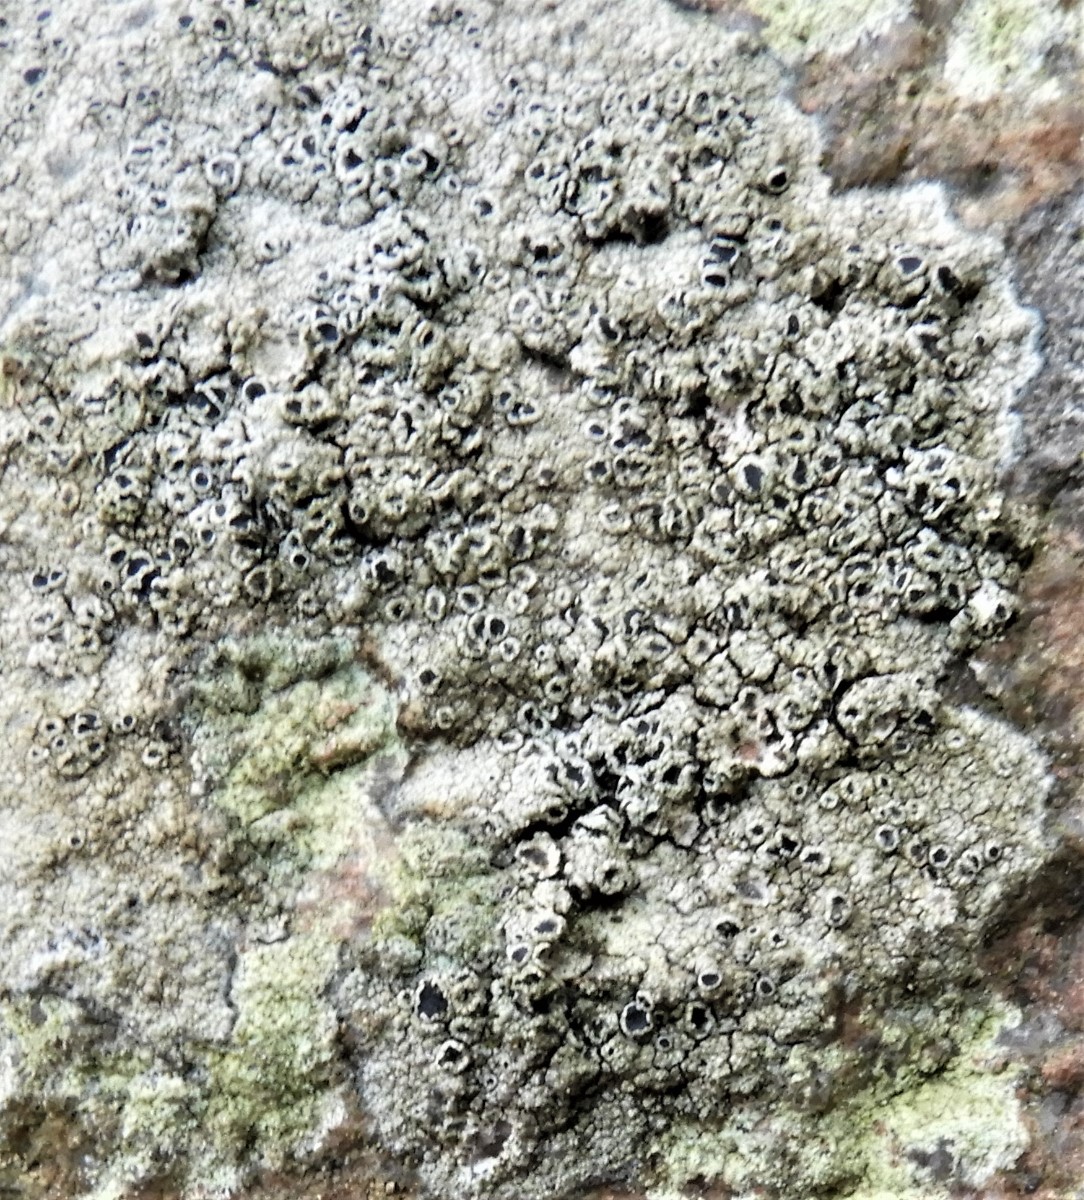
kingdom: Fungi
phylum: Ascomycota
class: Lecanoromycetes
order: Lecanorales
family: Tephromelataceae
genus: Tephromela
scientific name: Tephromela atra
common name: sortfrugtet kantskivelav
